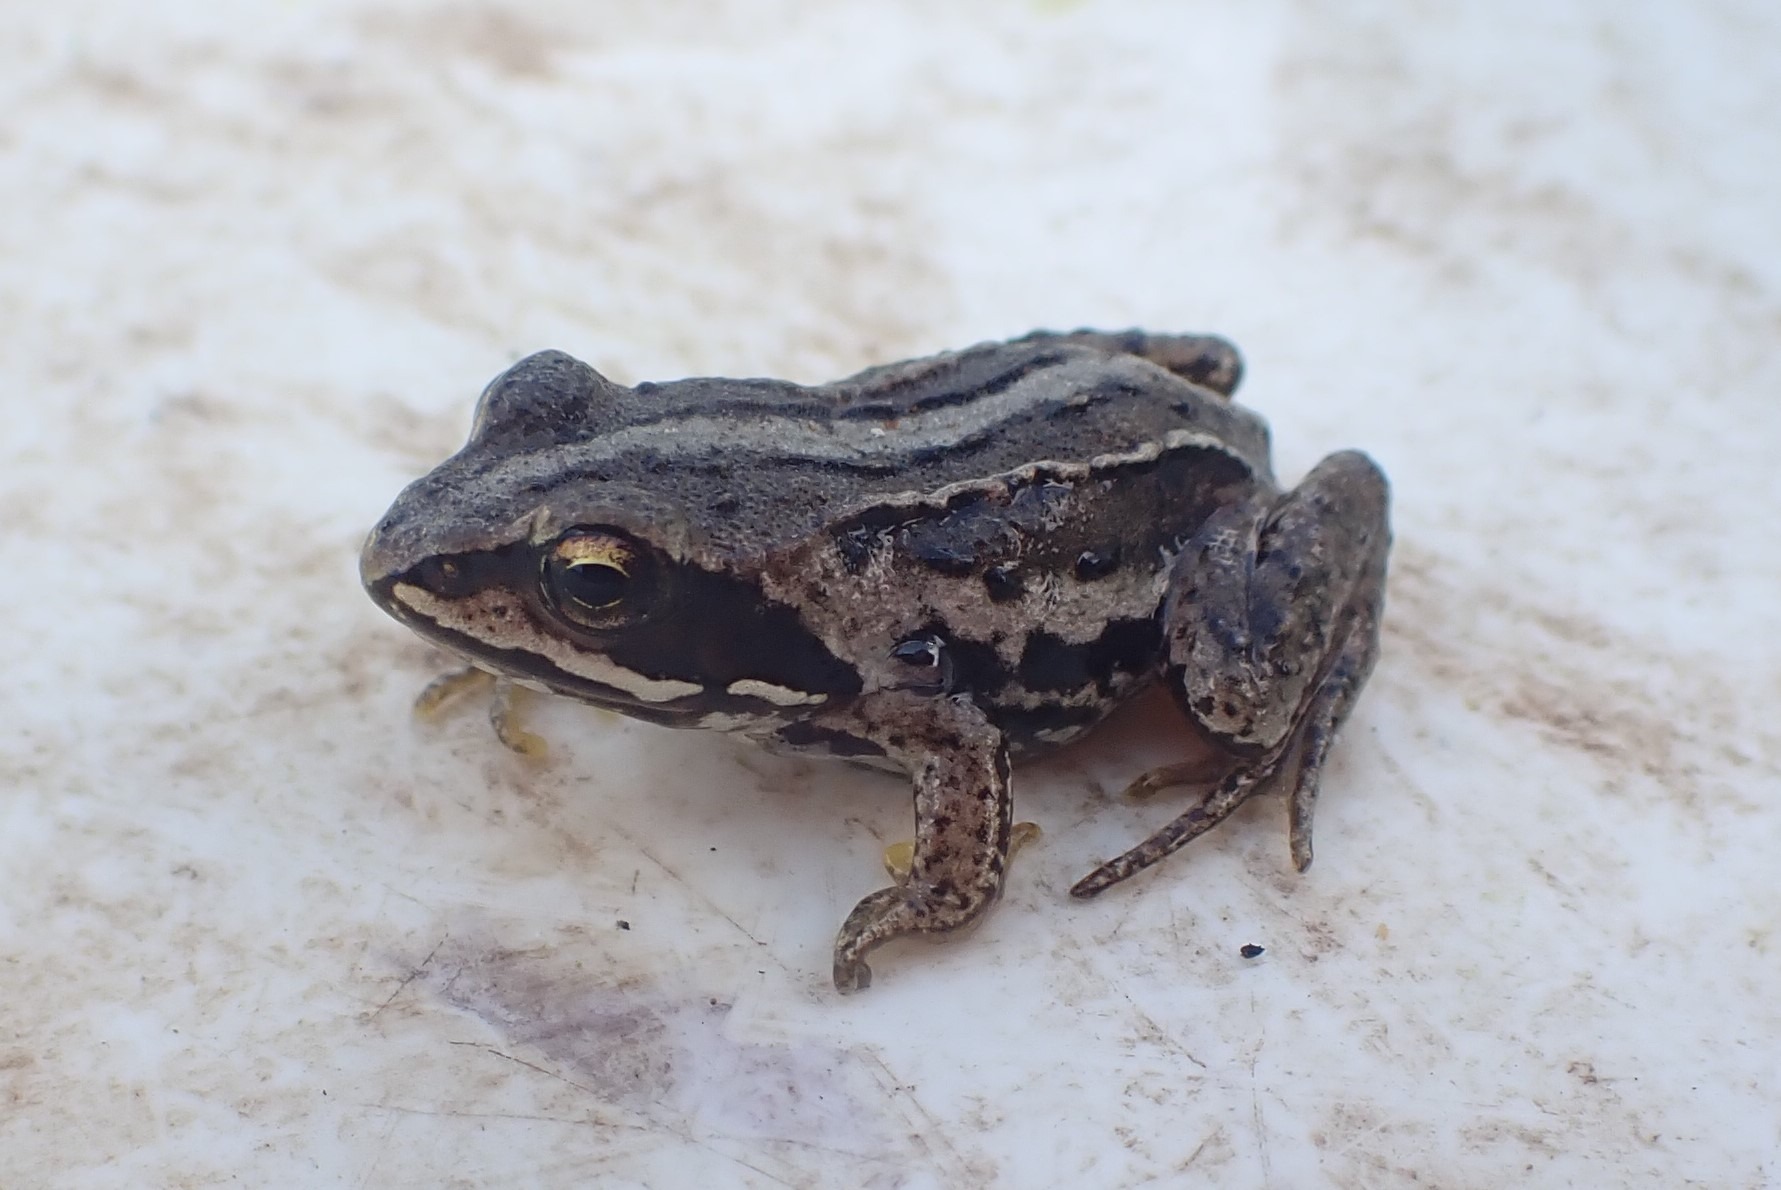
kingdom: Animalia
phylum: Chordata
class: Amphibia
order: Anura
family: Ranidae
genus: Rana
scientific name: Rana arvalis
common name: Spidssnudet frø
